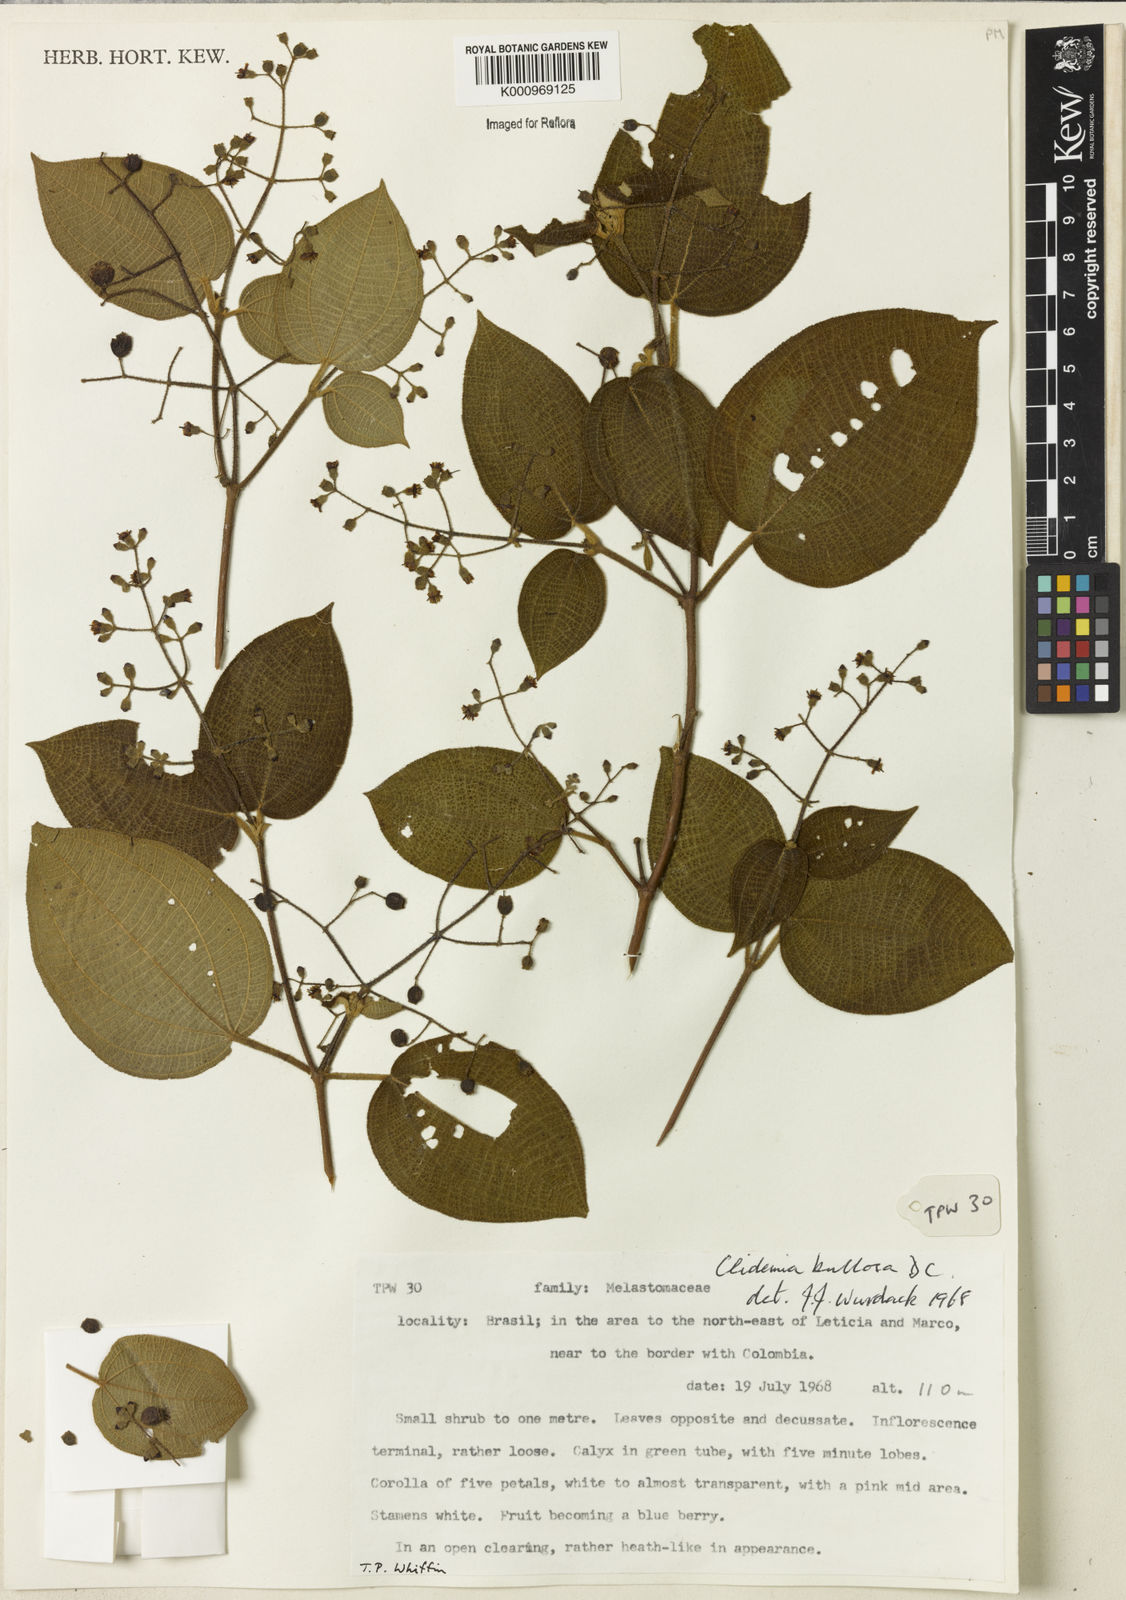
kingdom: Plantae
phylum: Tracheophyta
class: Magnoliopsida
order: Myrtales
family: Melastomataceae
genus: Miconia
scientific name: Miconia biserrata
